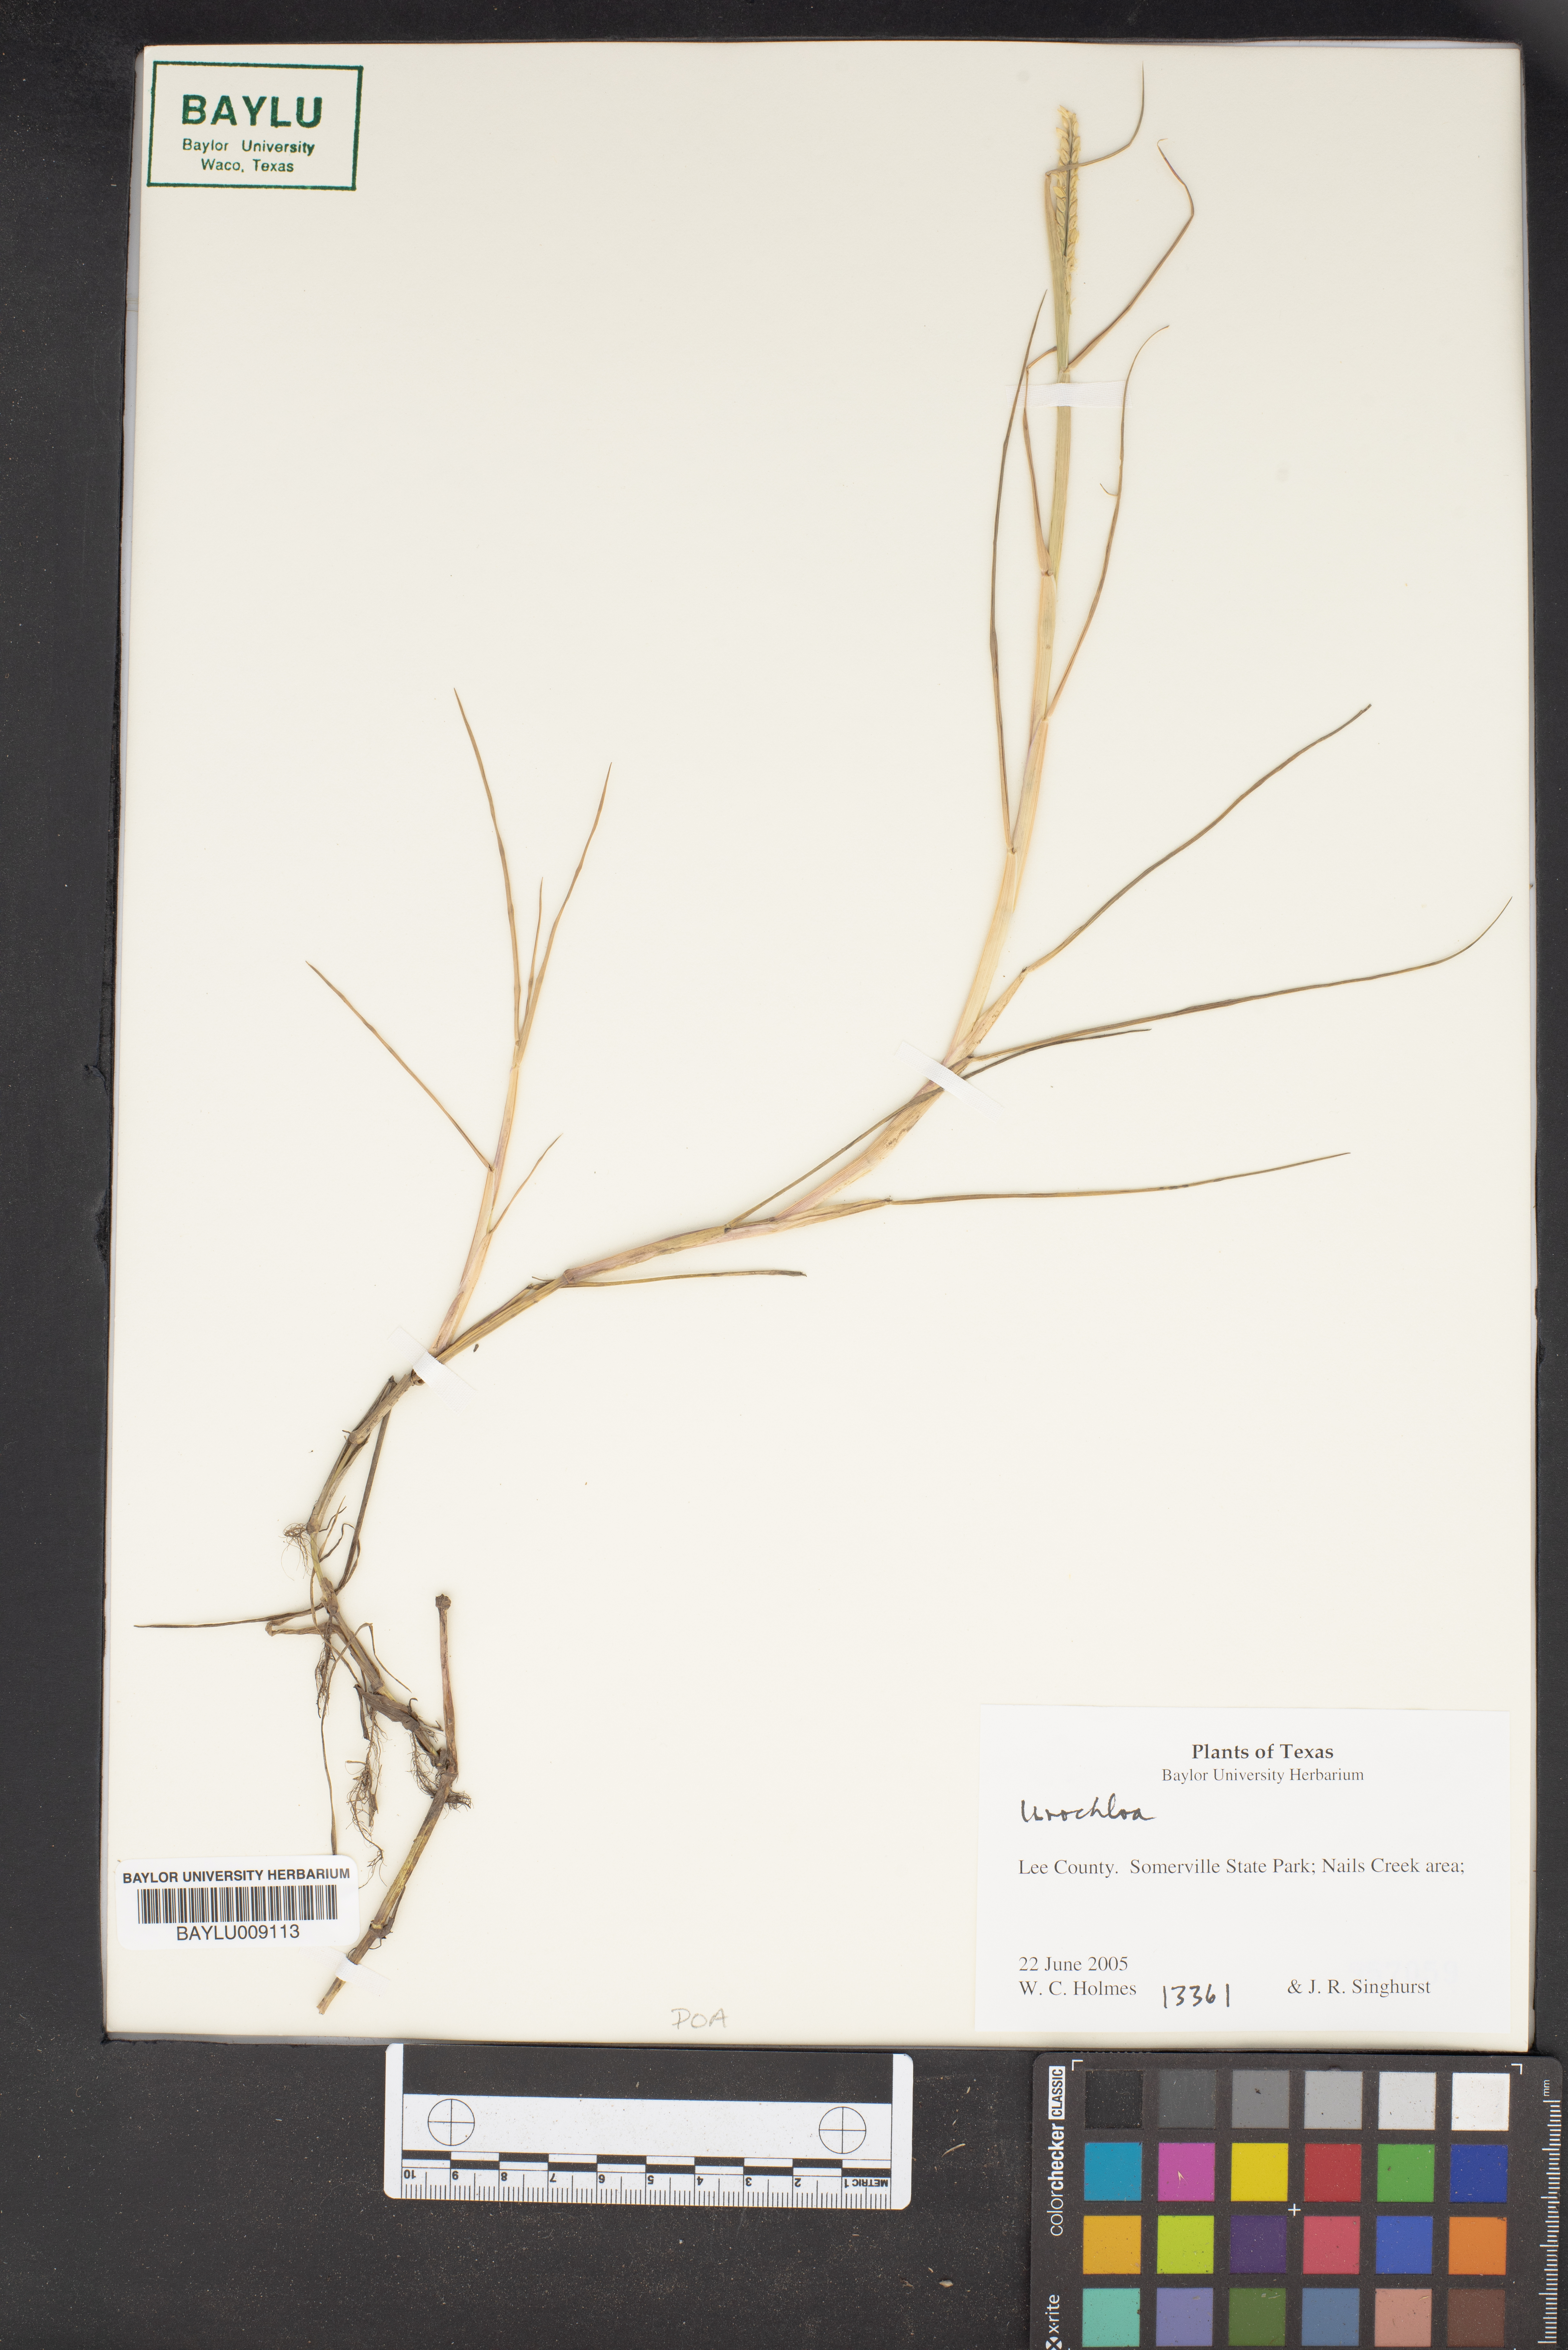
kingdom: Plantae
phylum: Tracheophyta
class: Liliopsida
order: Poales
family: Poaceae
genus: Urochloa
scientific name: Urochloa
